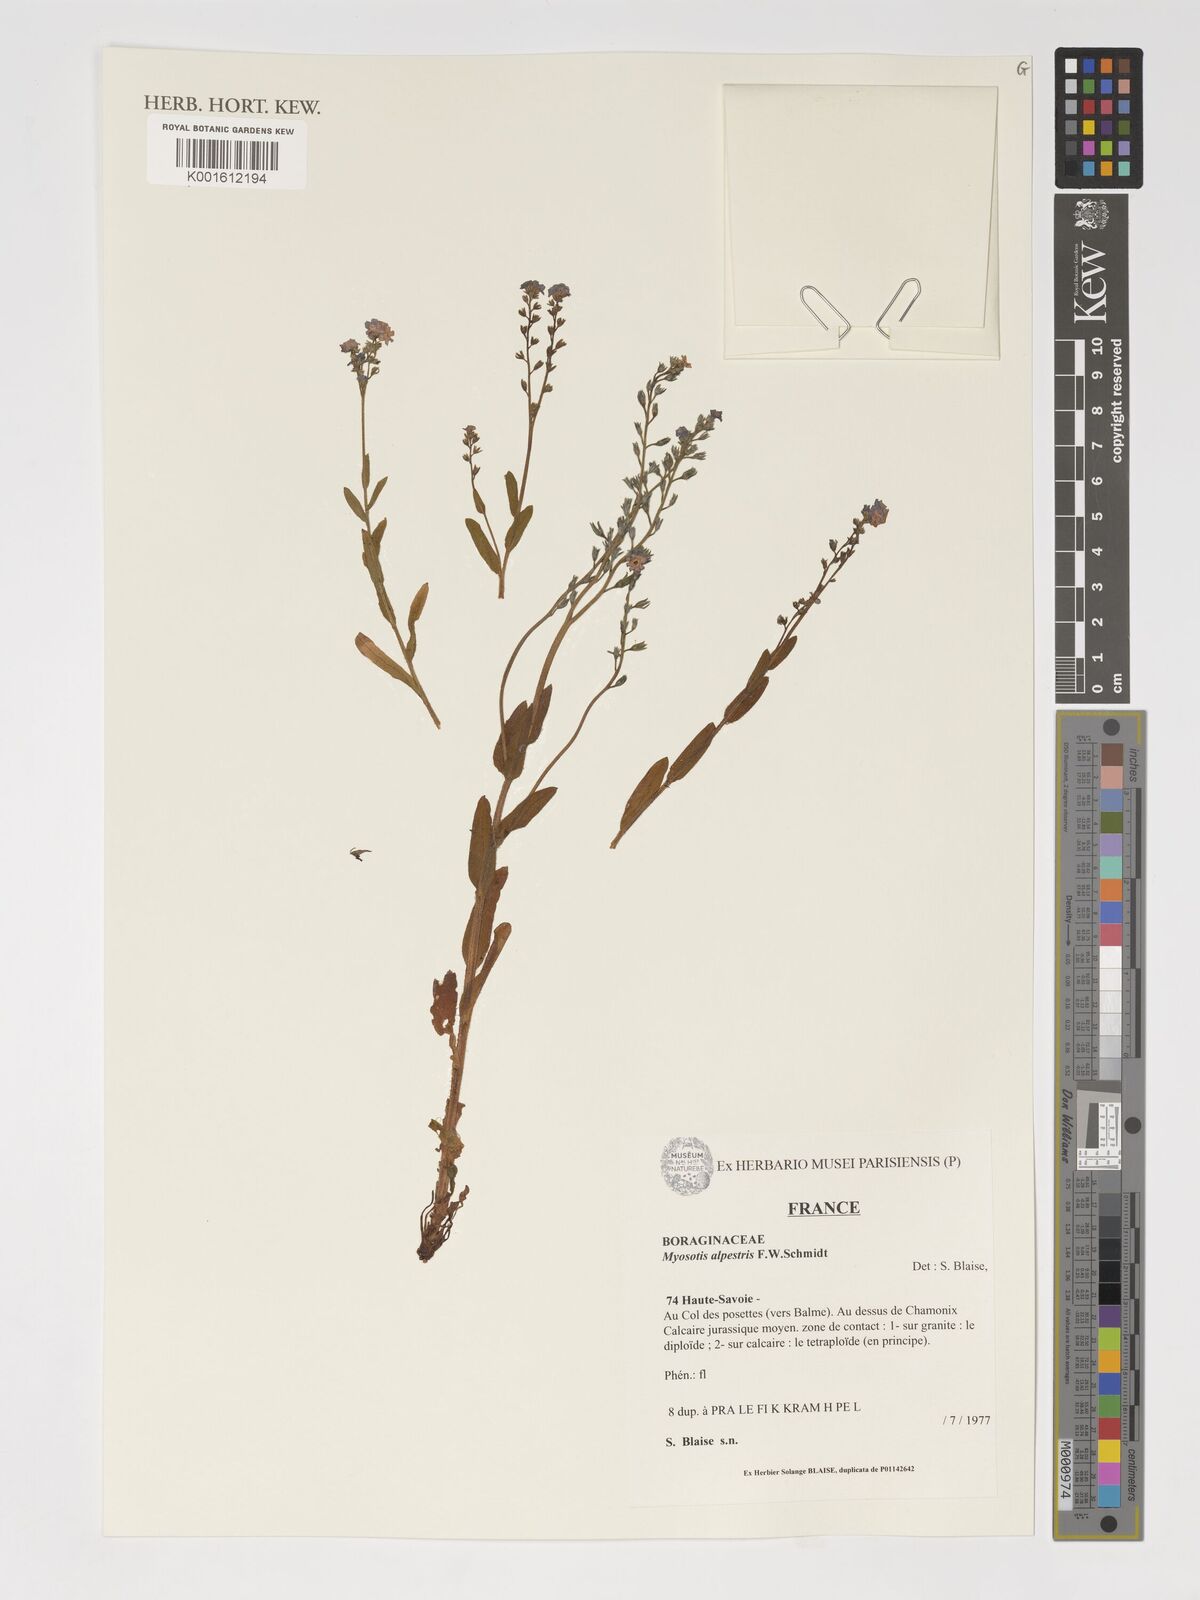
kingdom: Plantae
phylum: Tracheophyta
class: Magnoliopsida
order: Boraginales
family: Boraginaceae
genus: Myosotis
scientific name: Myosotis alpestris
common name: Alpine forget-me-not
